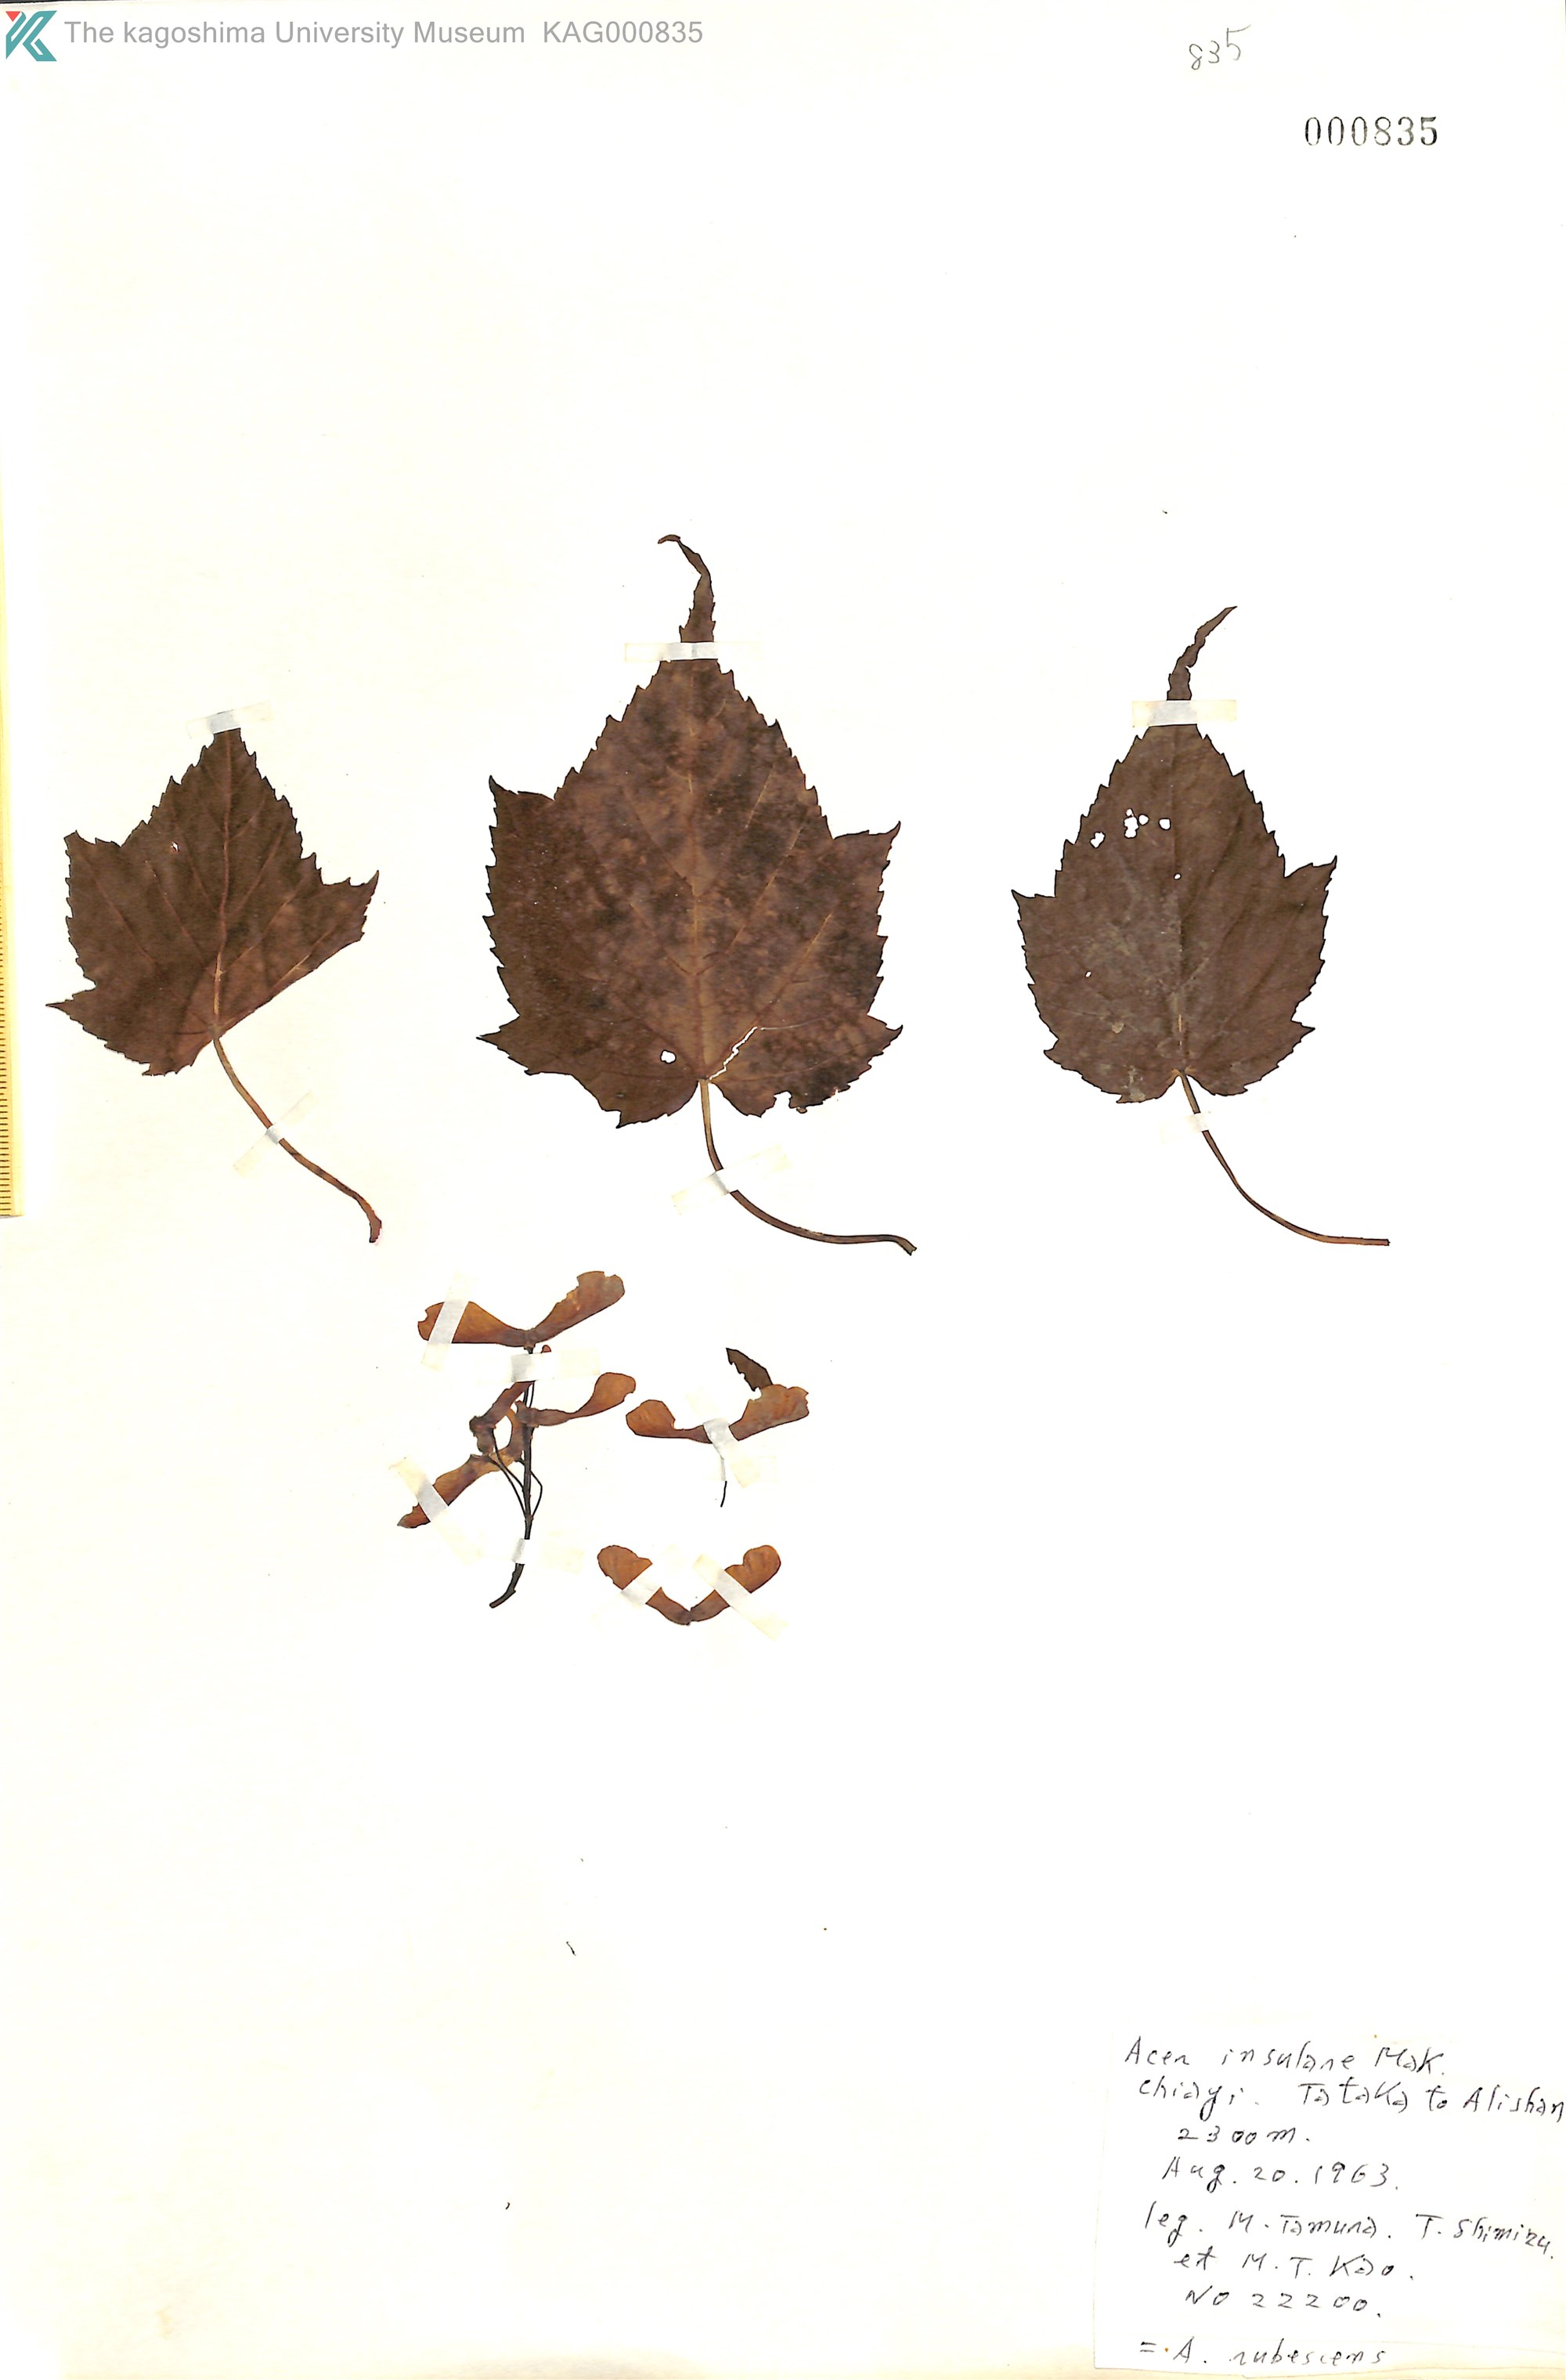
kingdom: Plantae
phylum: Tracheophyta
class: Magnoliopsida
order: Sapindales
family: Sapindaceae
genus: Acer
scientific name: Acer caudatifolium
